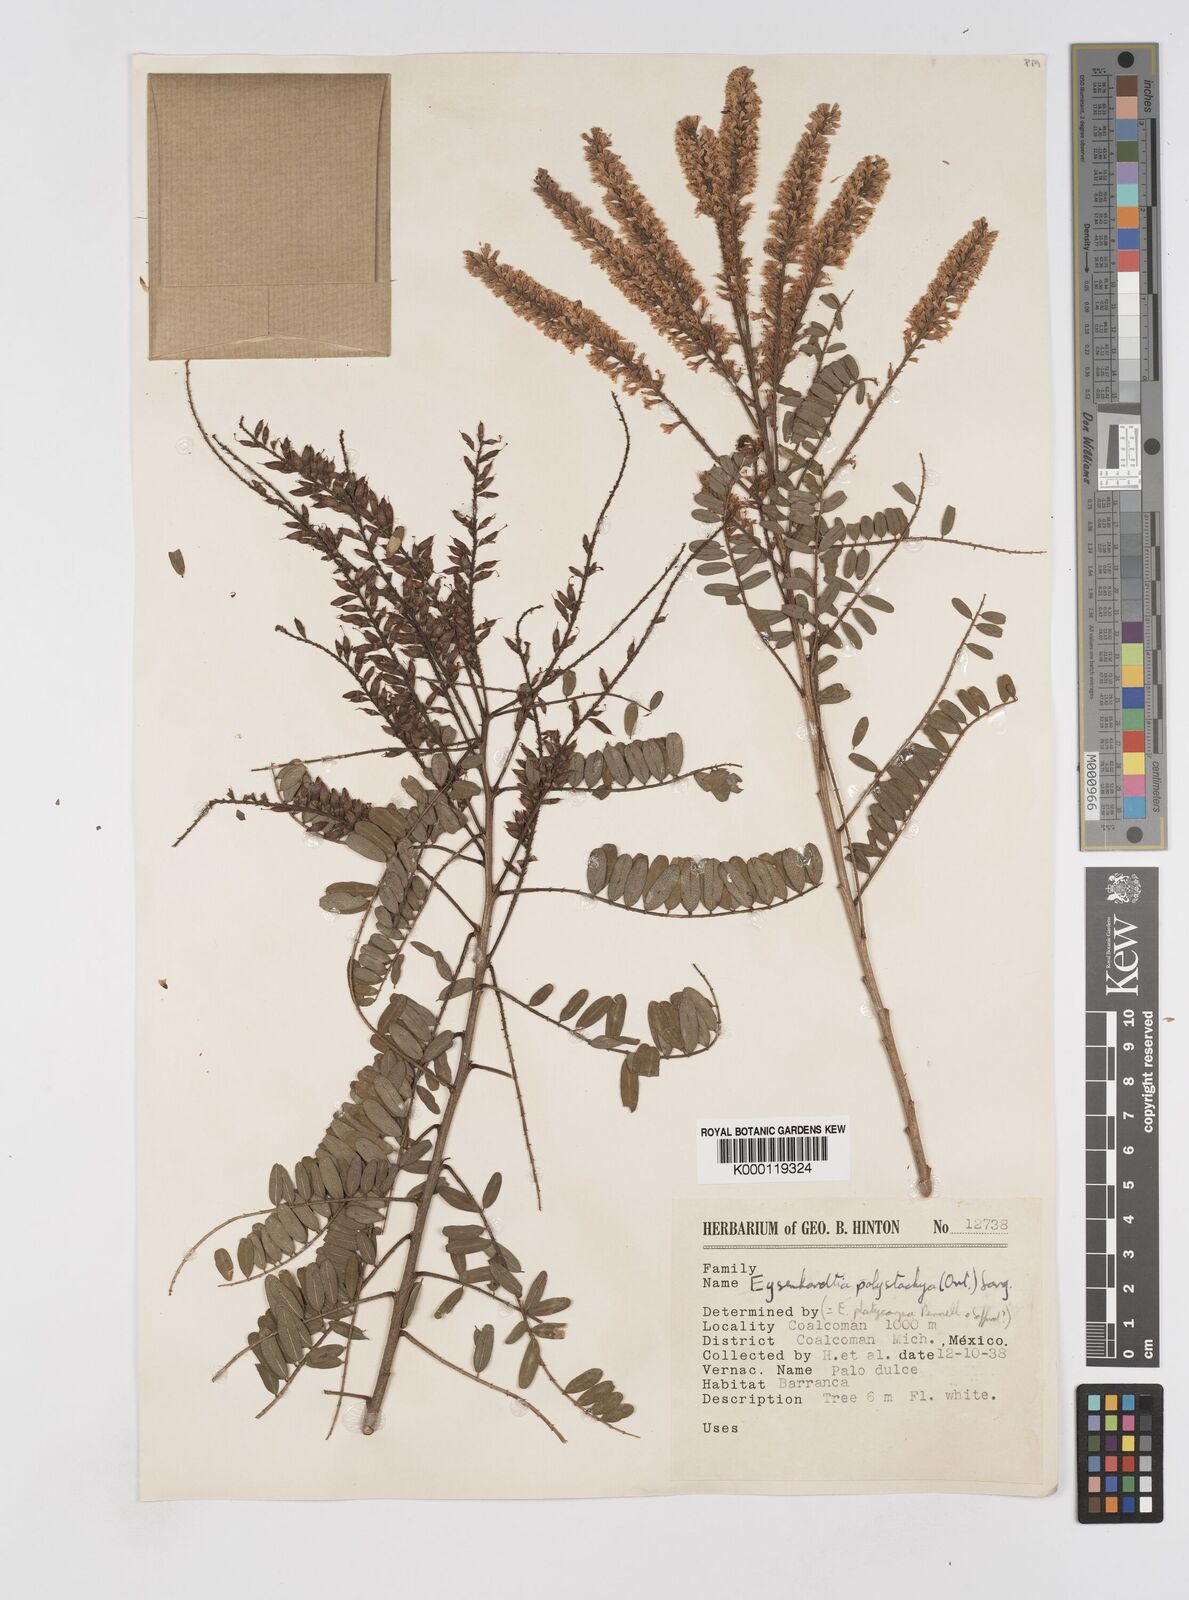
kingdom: Plantae
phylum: Tracheophyta
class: Magnoliopsida
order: Fabales
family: Fabaceae
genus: Eysenhardtia
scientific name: Eysenhardtia polystachya
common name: Kidneywood
